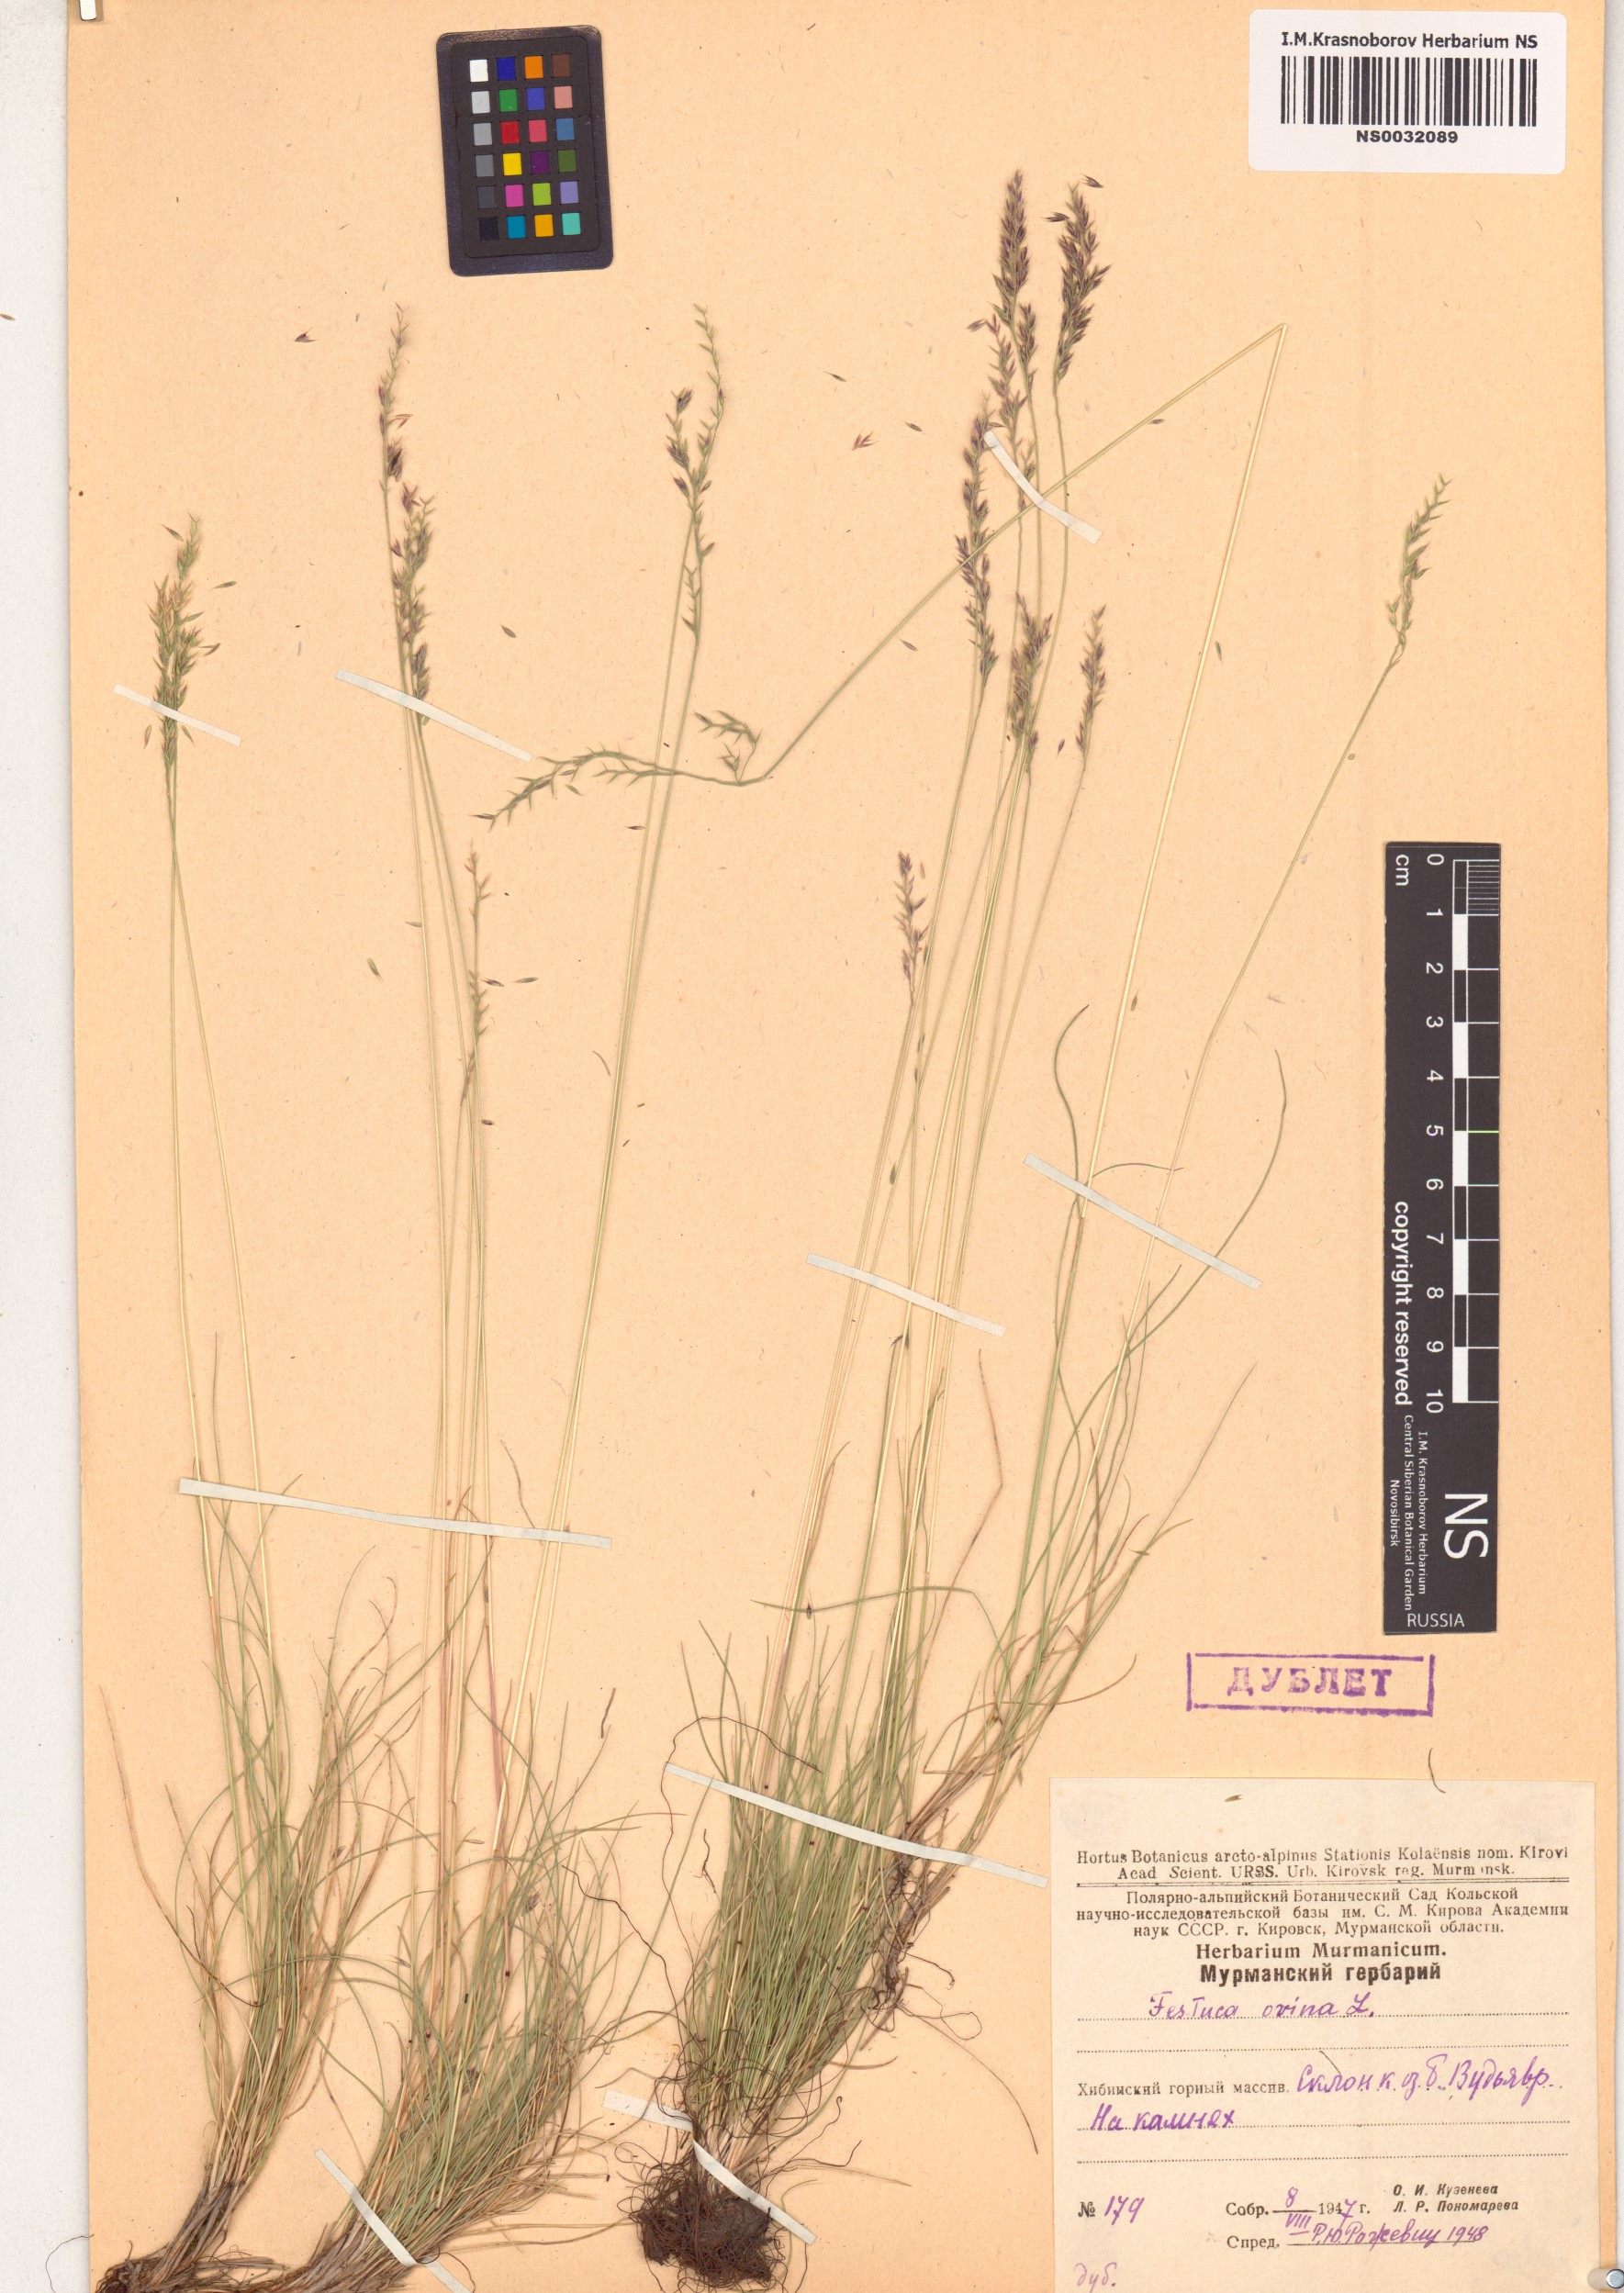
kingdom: Plantae
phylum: Tracheophyta
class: Liliopsida
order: Poales
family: Poaceae
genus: Festuca
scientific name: Festuca ovina
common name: Sheep fescue
